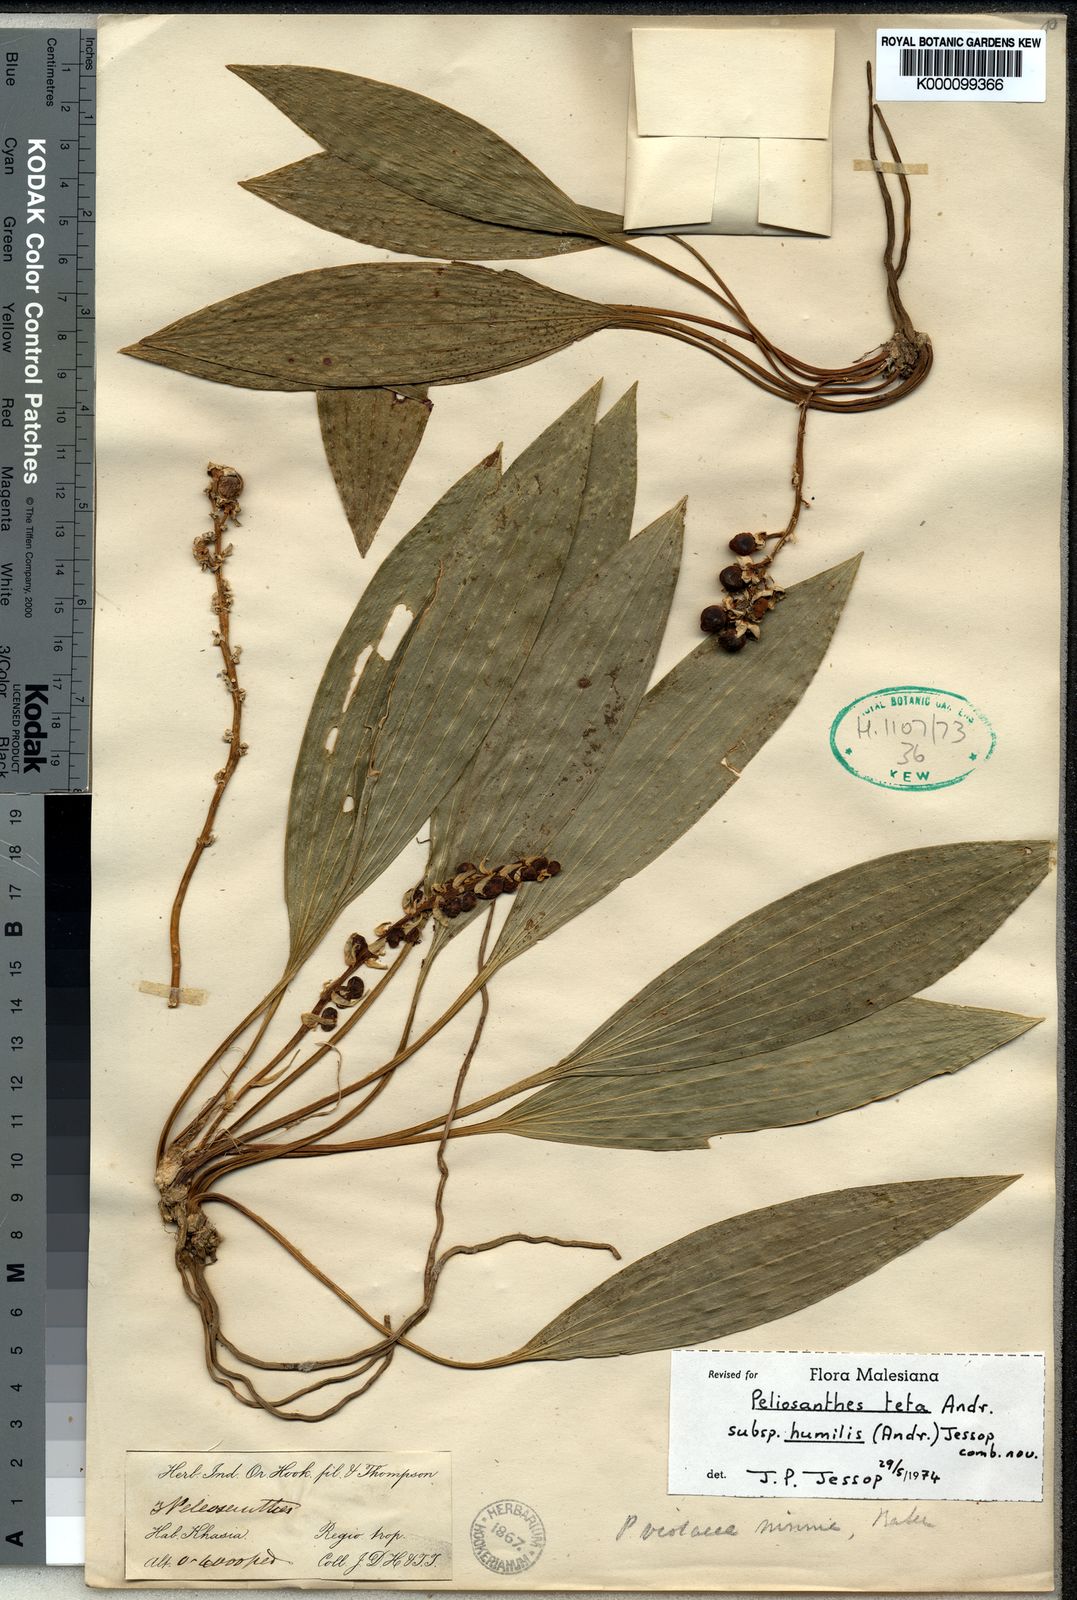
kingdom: Plantae
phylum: Tracheophyta
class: Liliopsida
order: Asparagales
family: Asparagaceae
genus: Peliosanthes
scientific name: Peliosanthes teta
